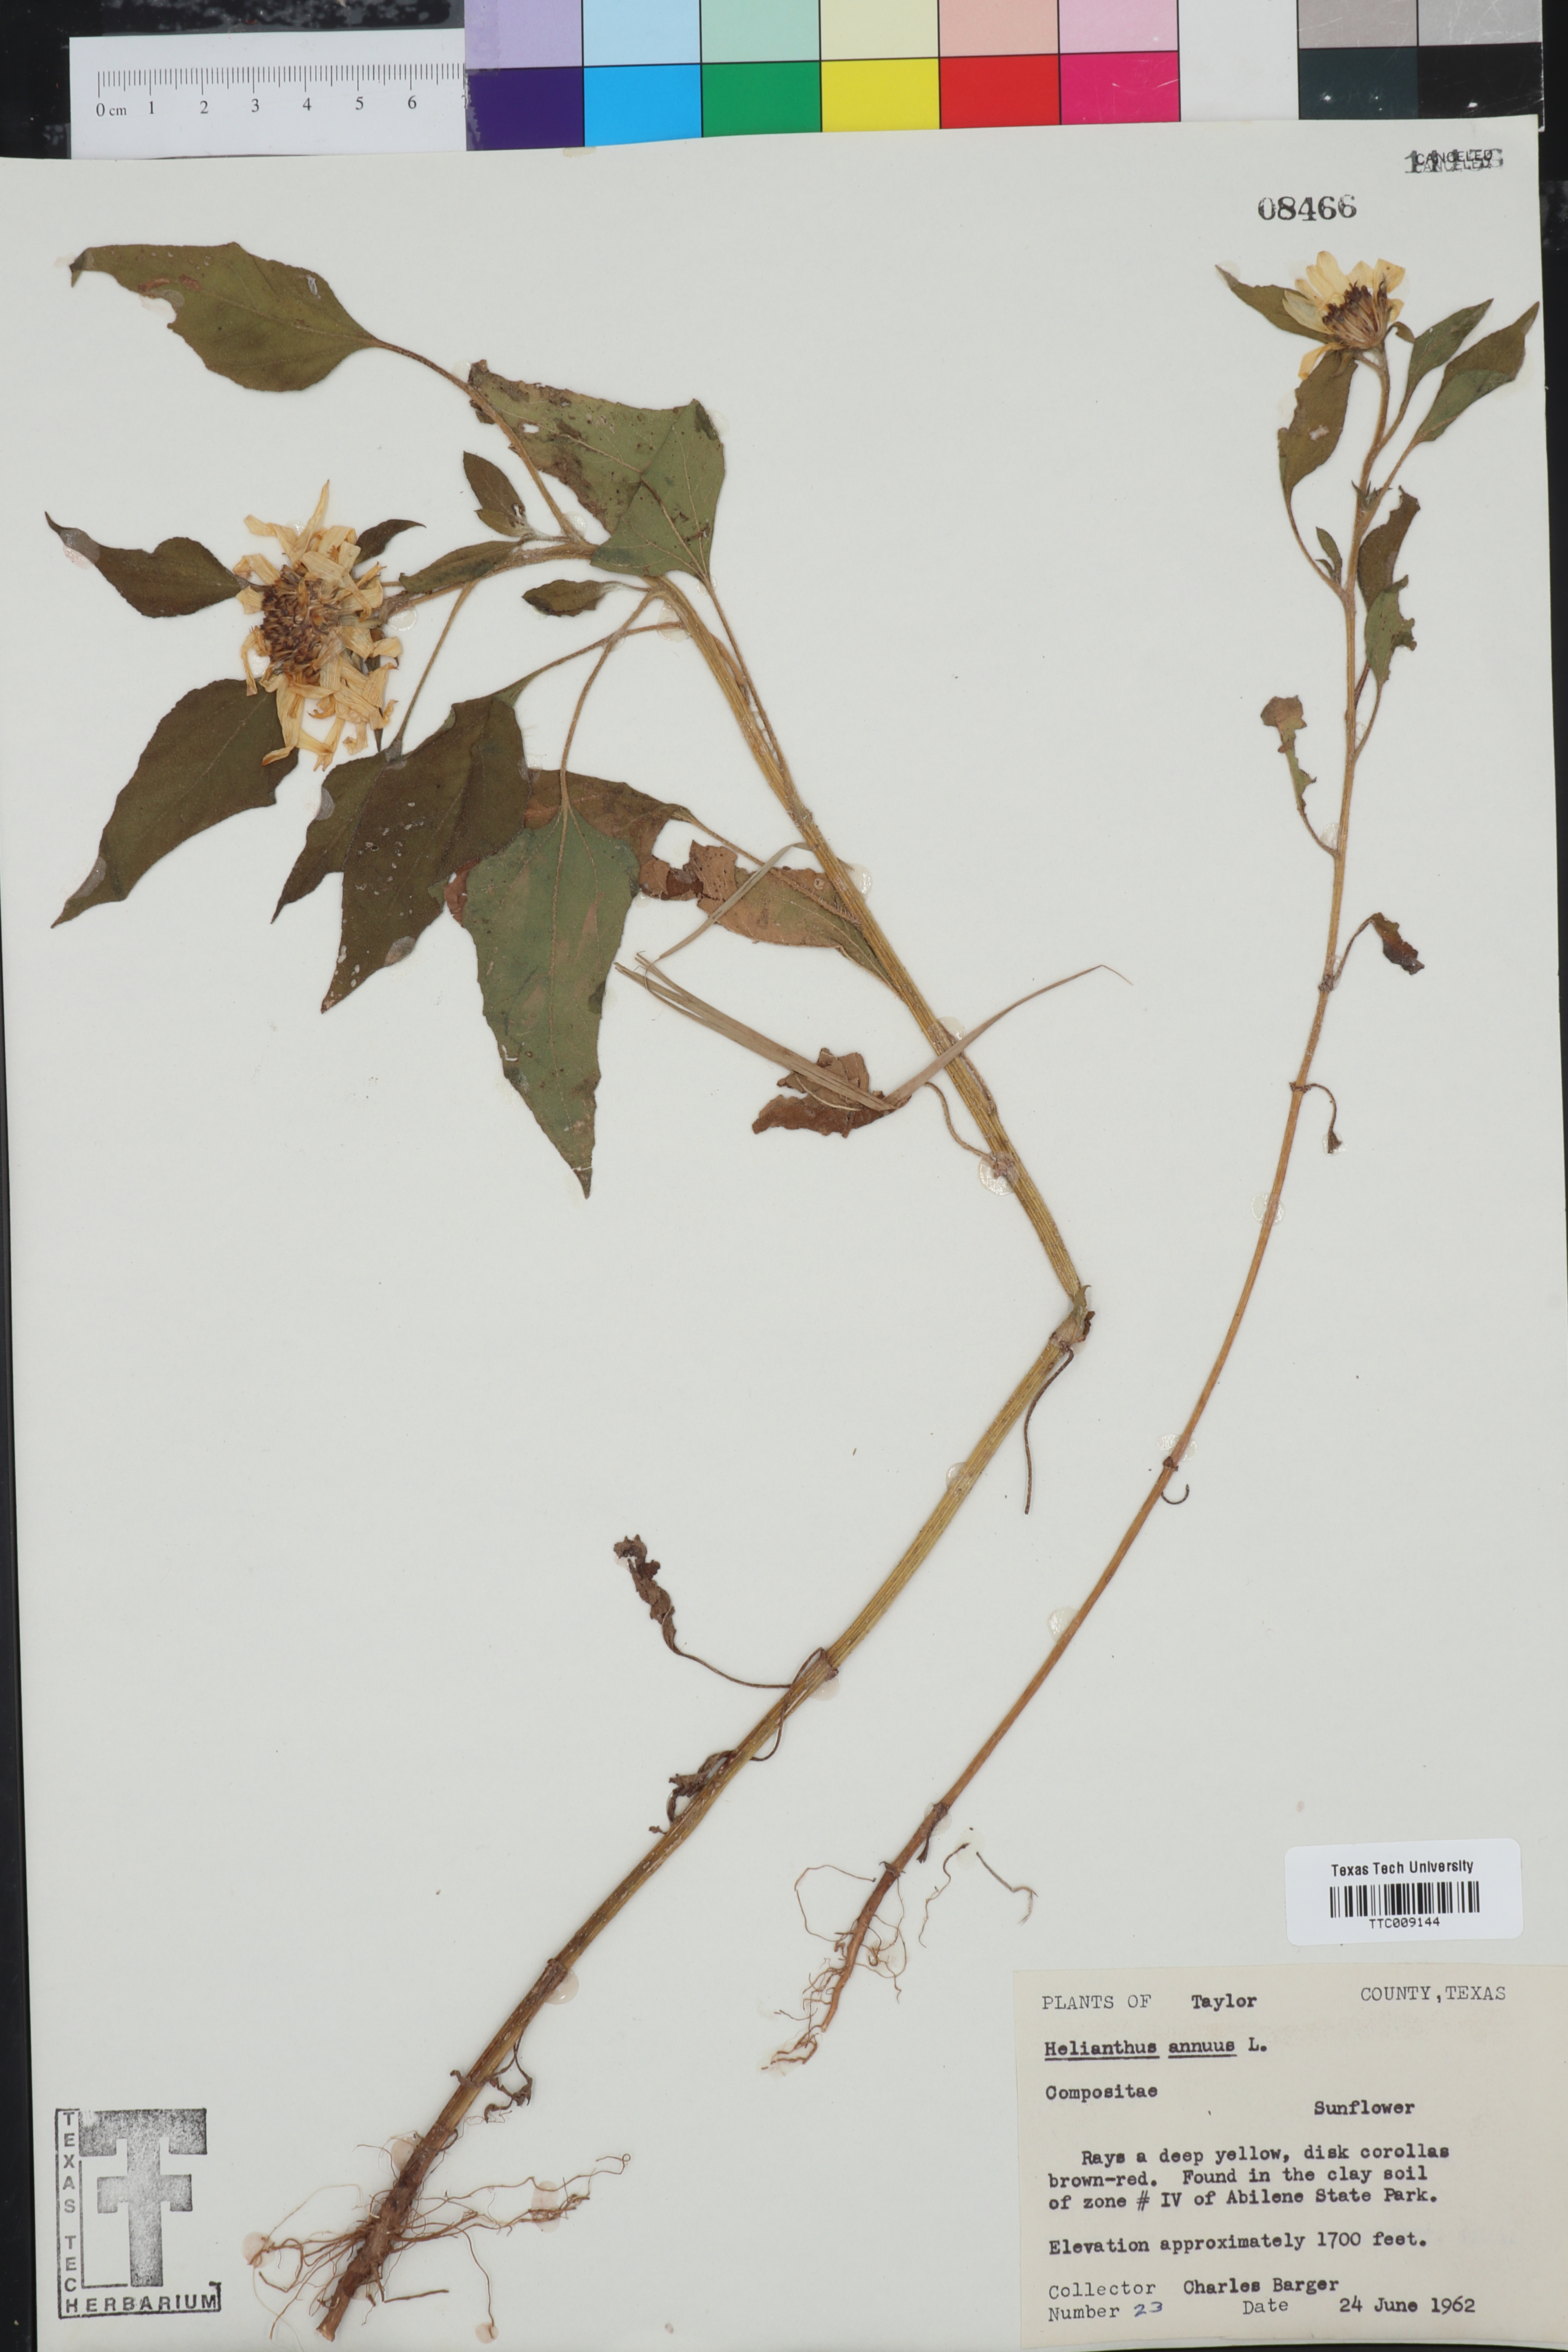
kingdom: Plantae
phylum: Tracheophyta
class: Magnoliopsida
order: Asterales
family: Asteraceae
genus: Helianthus
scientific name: Helianthus annuus
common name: Sunflower
